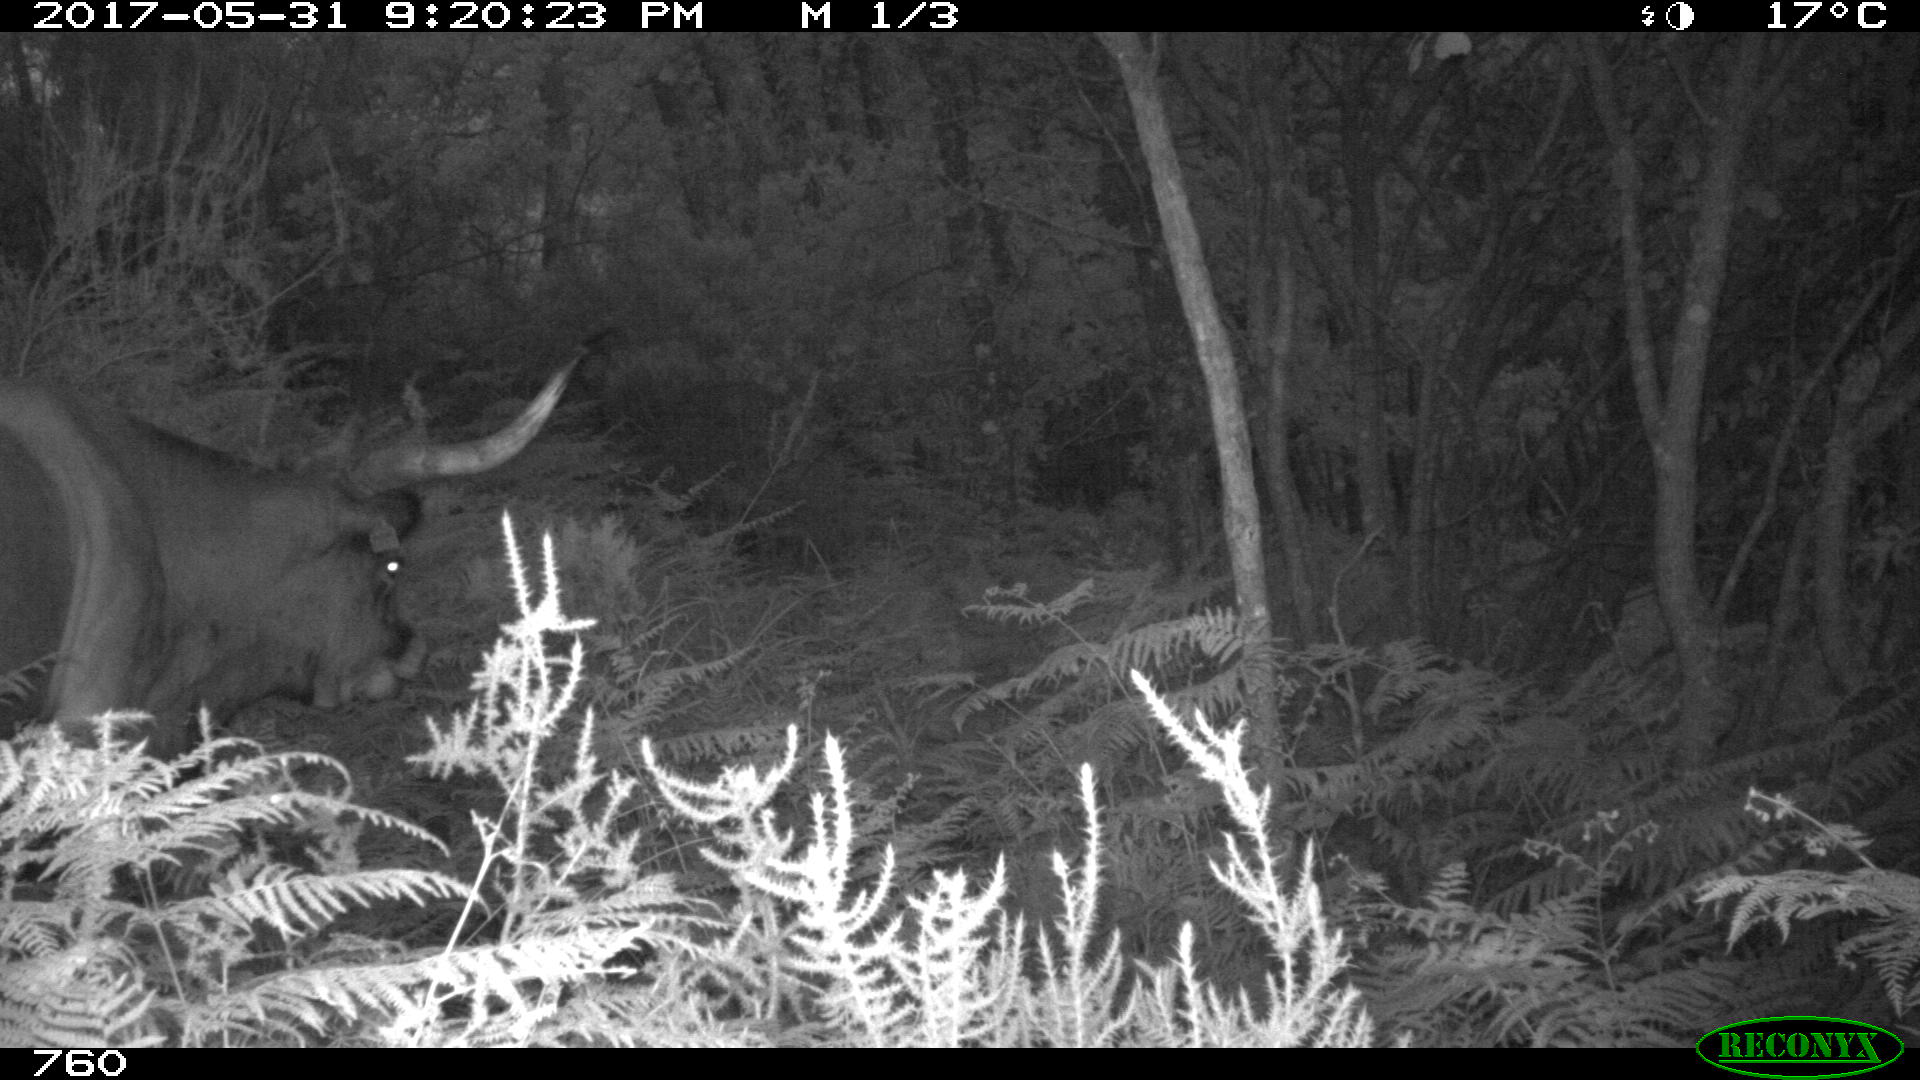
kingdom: Animalia
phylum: Chordata
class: Mammalia
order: Artiodactyla
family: Bovidae
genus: Bos
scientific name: Bos taurus
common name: Domesticated cattle
